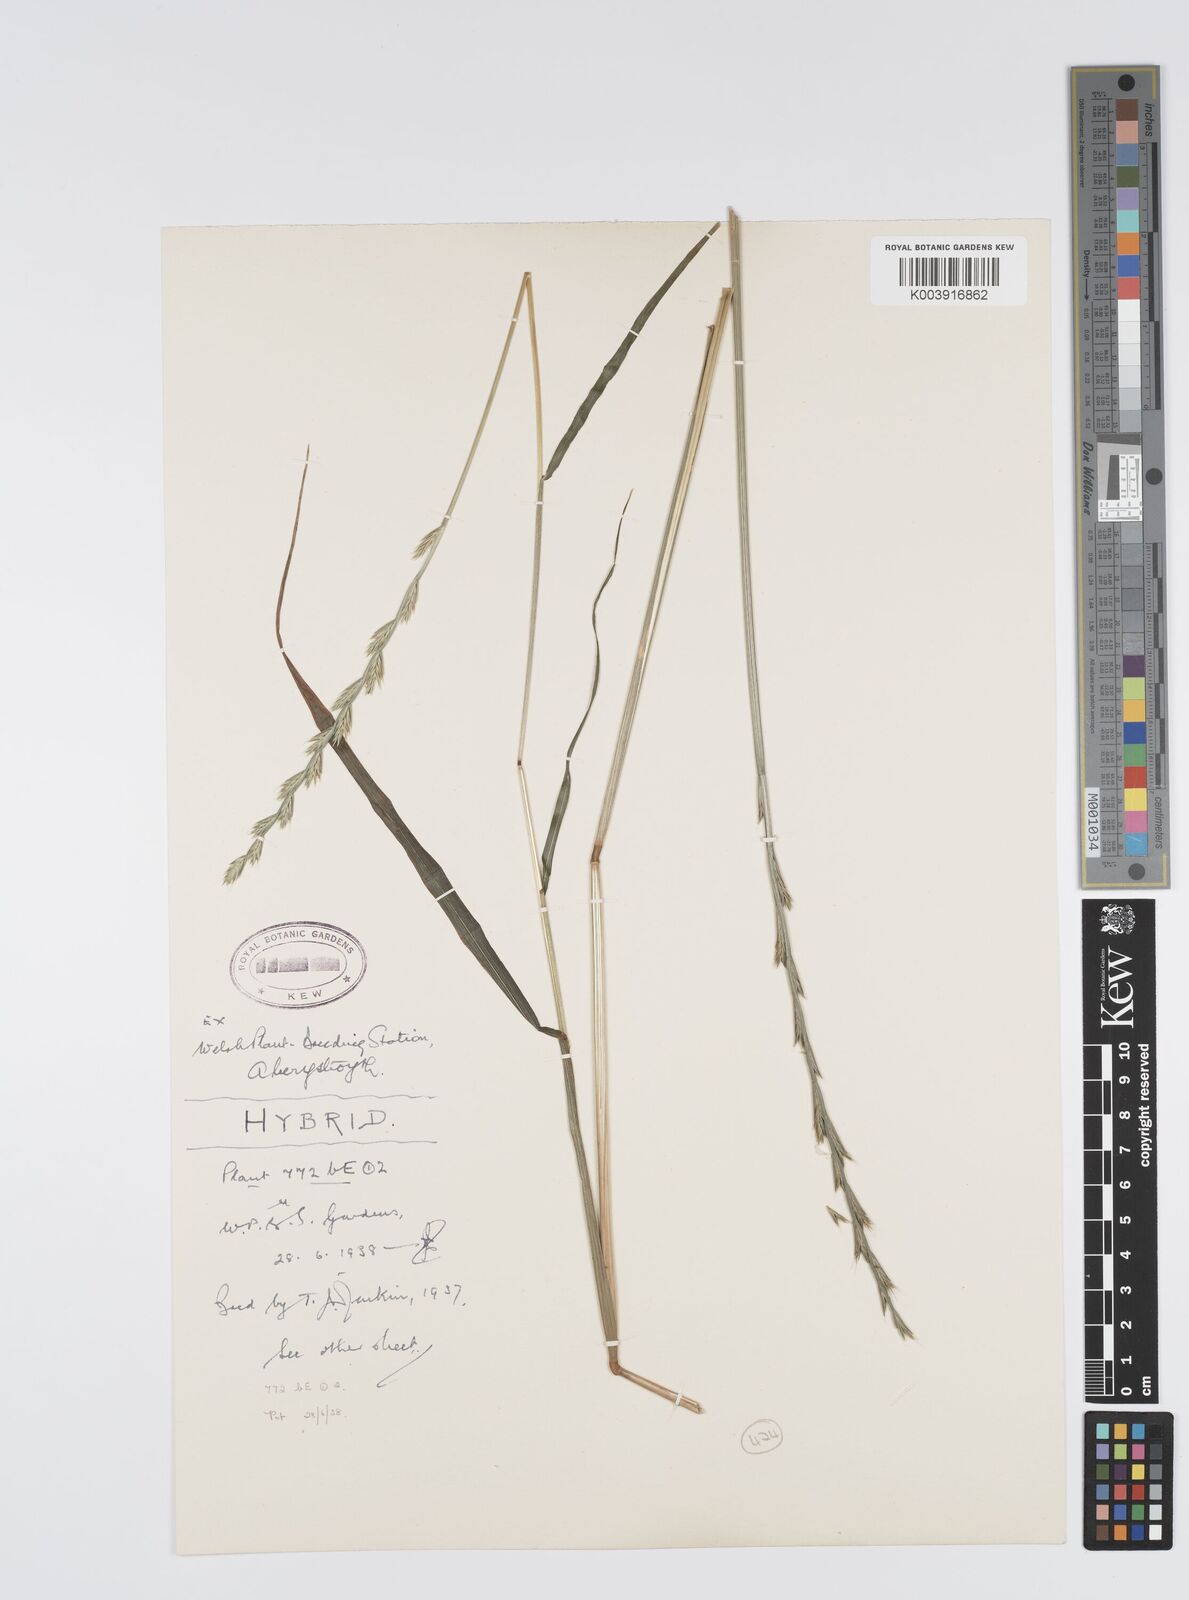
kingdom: Plantae
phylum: Tracheophyta
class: Liliopsida
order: Poales
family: Poaceae
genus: Lolium
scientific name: Lolium multiflorum
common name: Annual ryegrass
